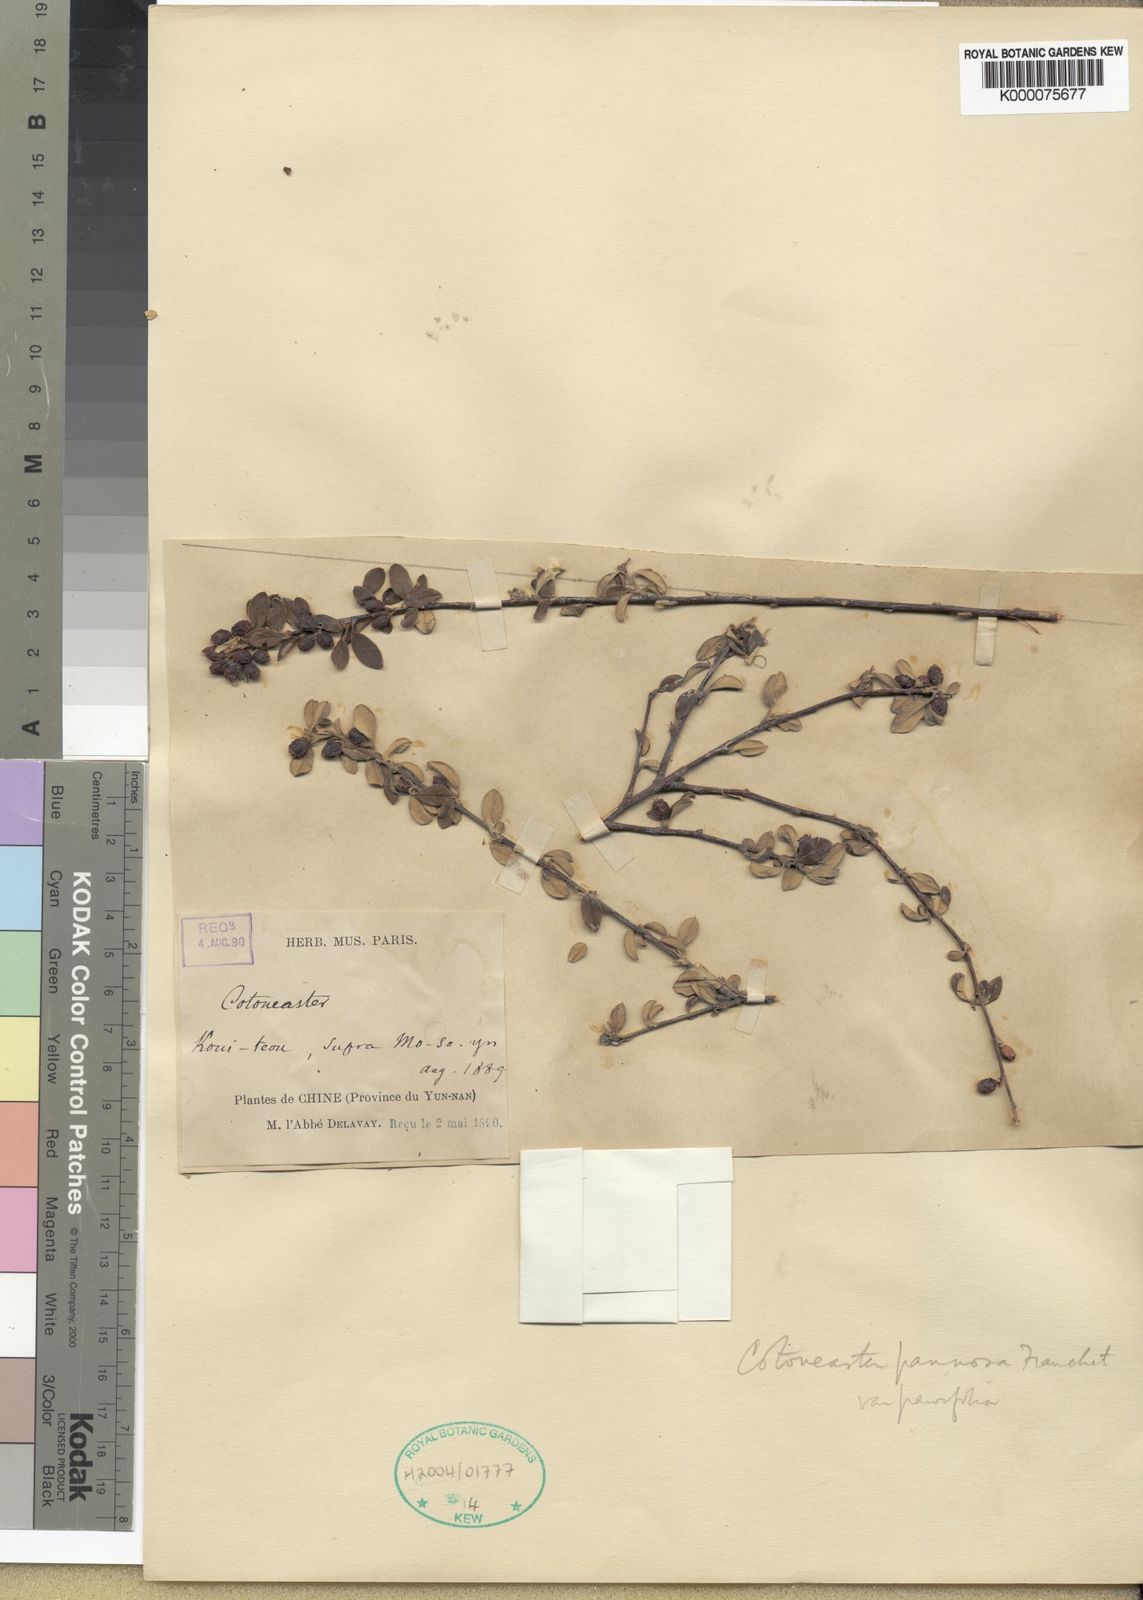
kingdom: Plantae
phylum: Tracheophyta
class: Magnoliopsida
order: Rosales
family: Rosaceae
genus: Cotoneaster
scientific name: Cotoneaster pannosus
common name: Silverleaf cotoneaster
